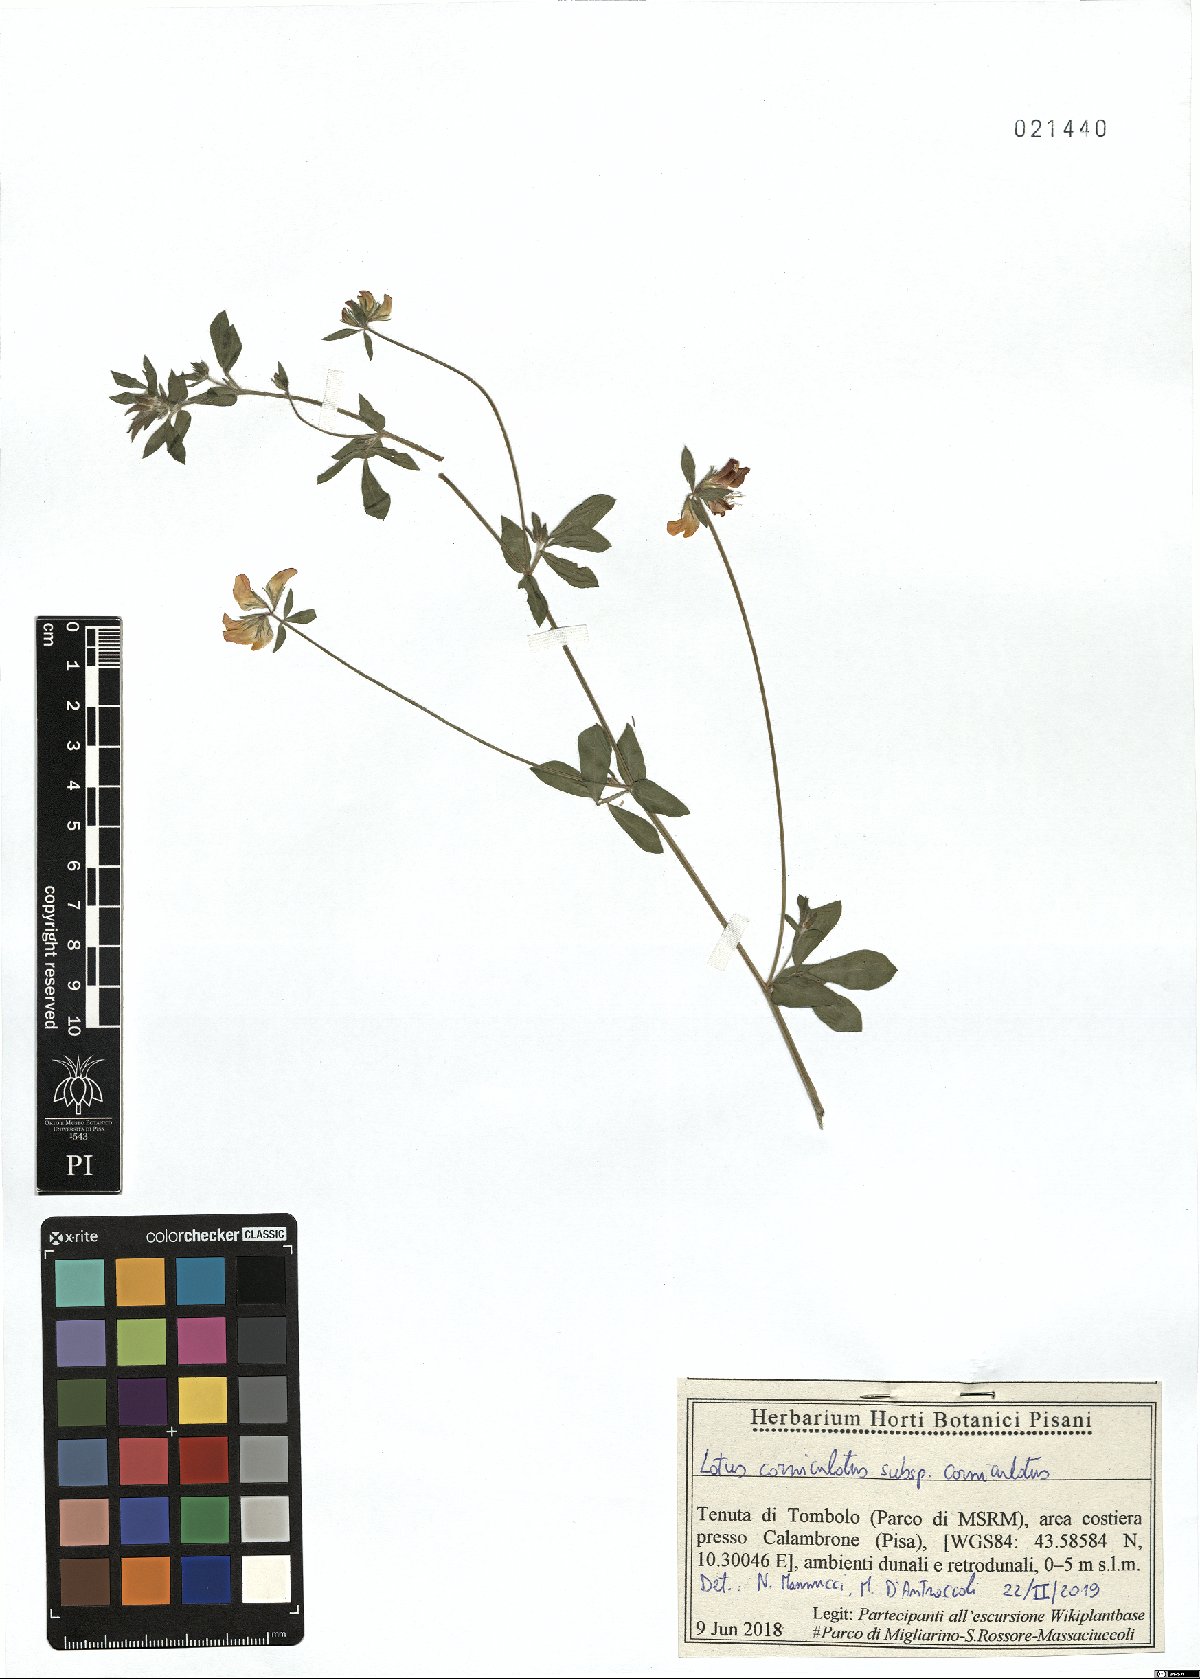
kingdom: Plantae
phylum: Tracheophyta
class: Magnoliopsida
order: Fabales
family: Fabaceae
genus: Lotus
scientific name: Lotus corniculatus
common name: Common bird's-foot-trefoil
